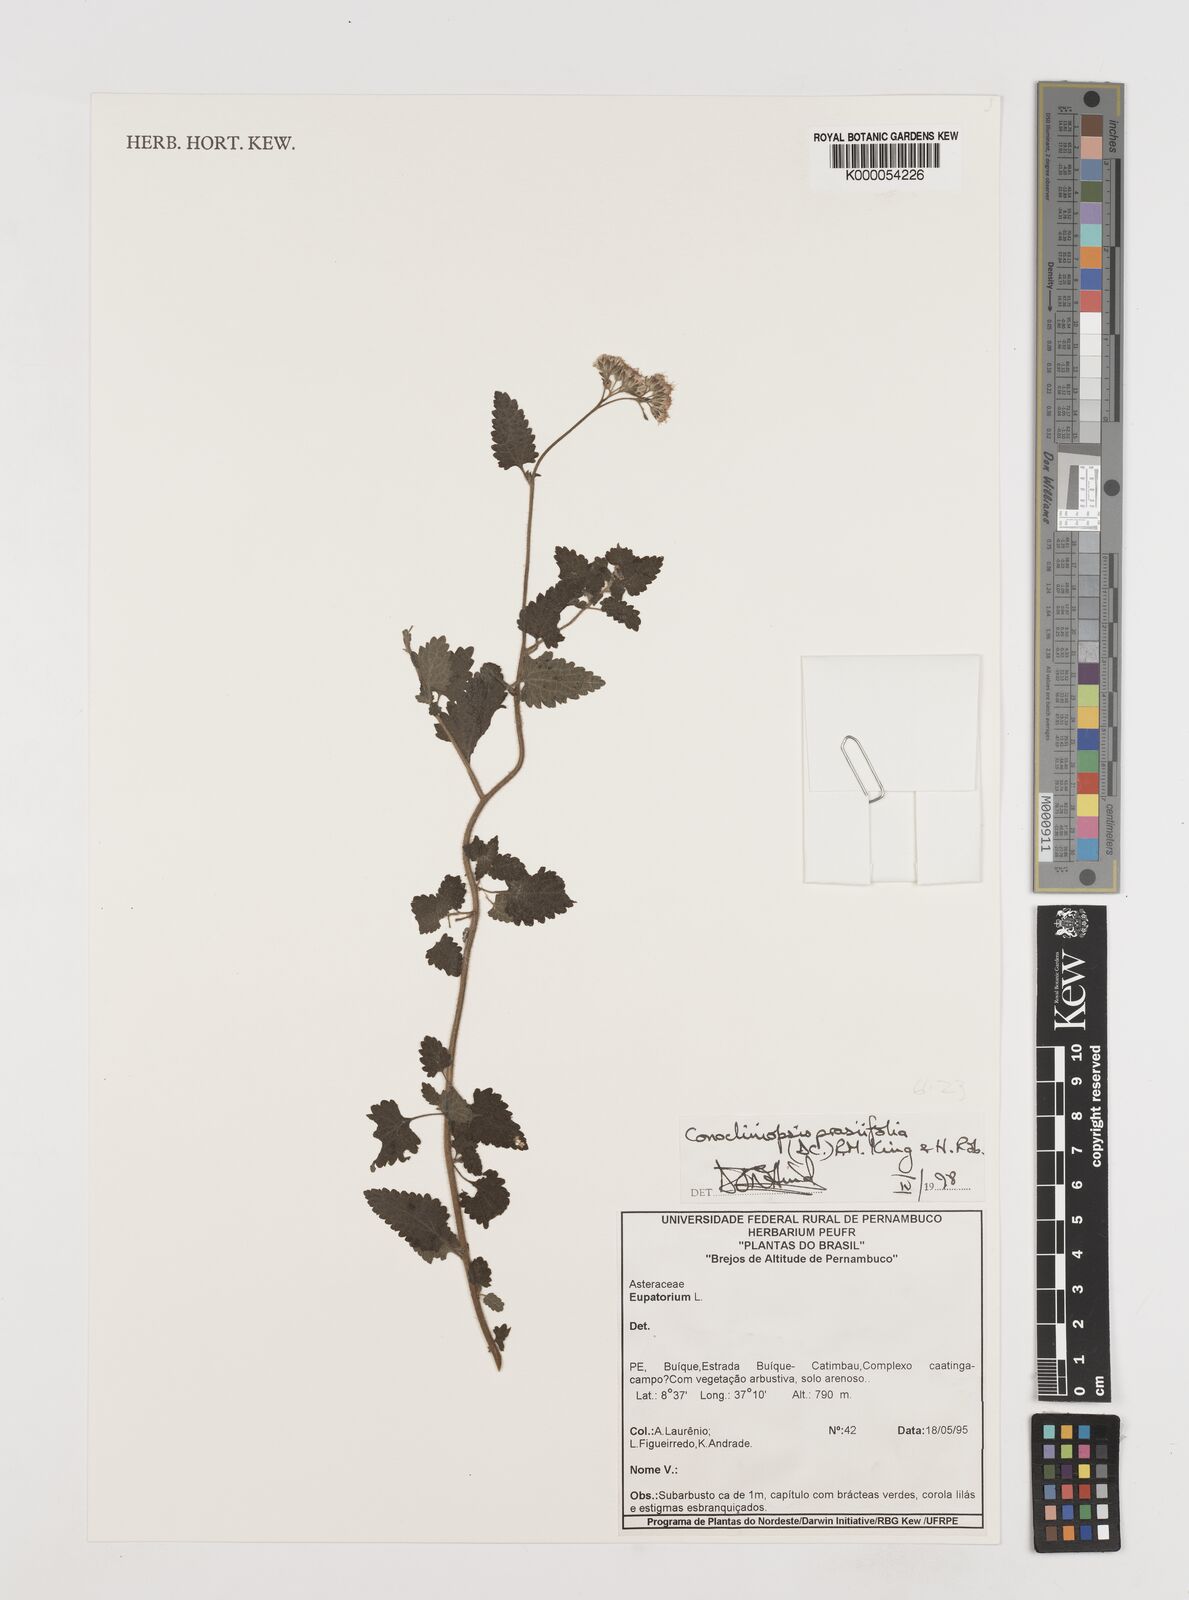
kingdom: Plantae
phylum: Tracheophyta
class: Magnoliopsida
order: Asterales
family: Asteraceae
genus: Conocliniopsis
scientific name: Conocliniopsis grossedentata
